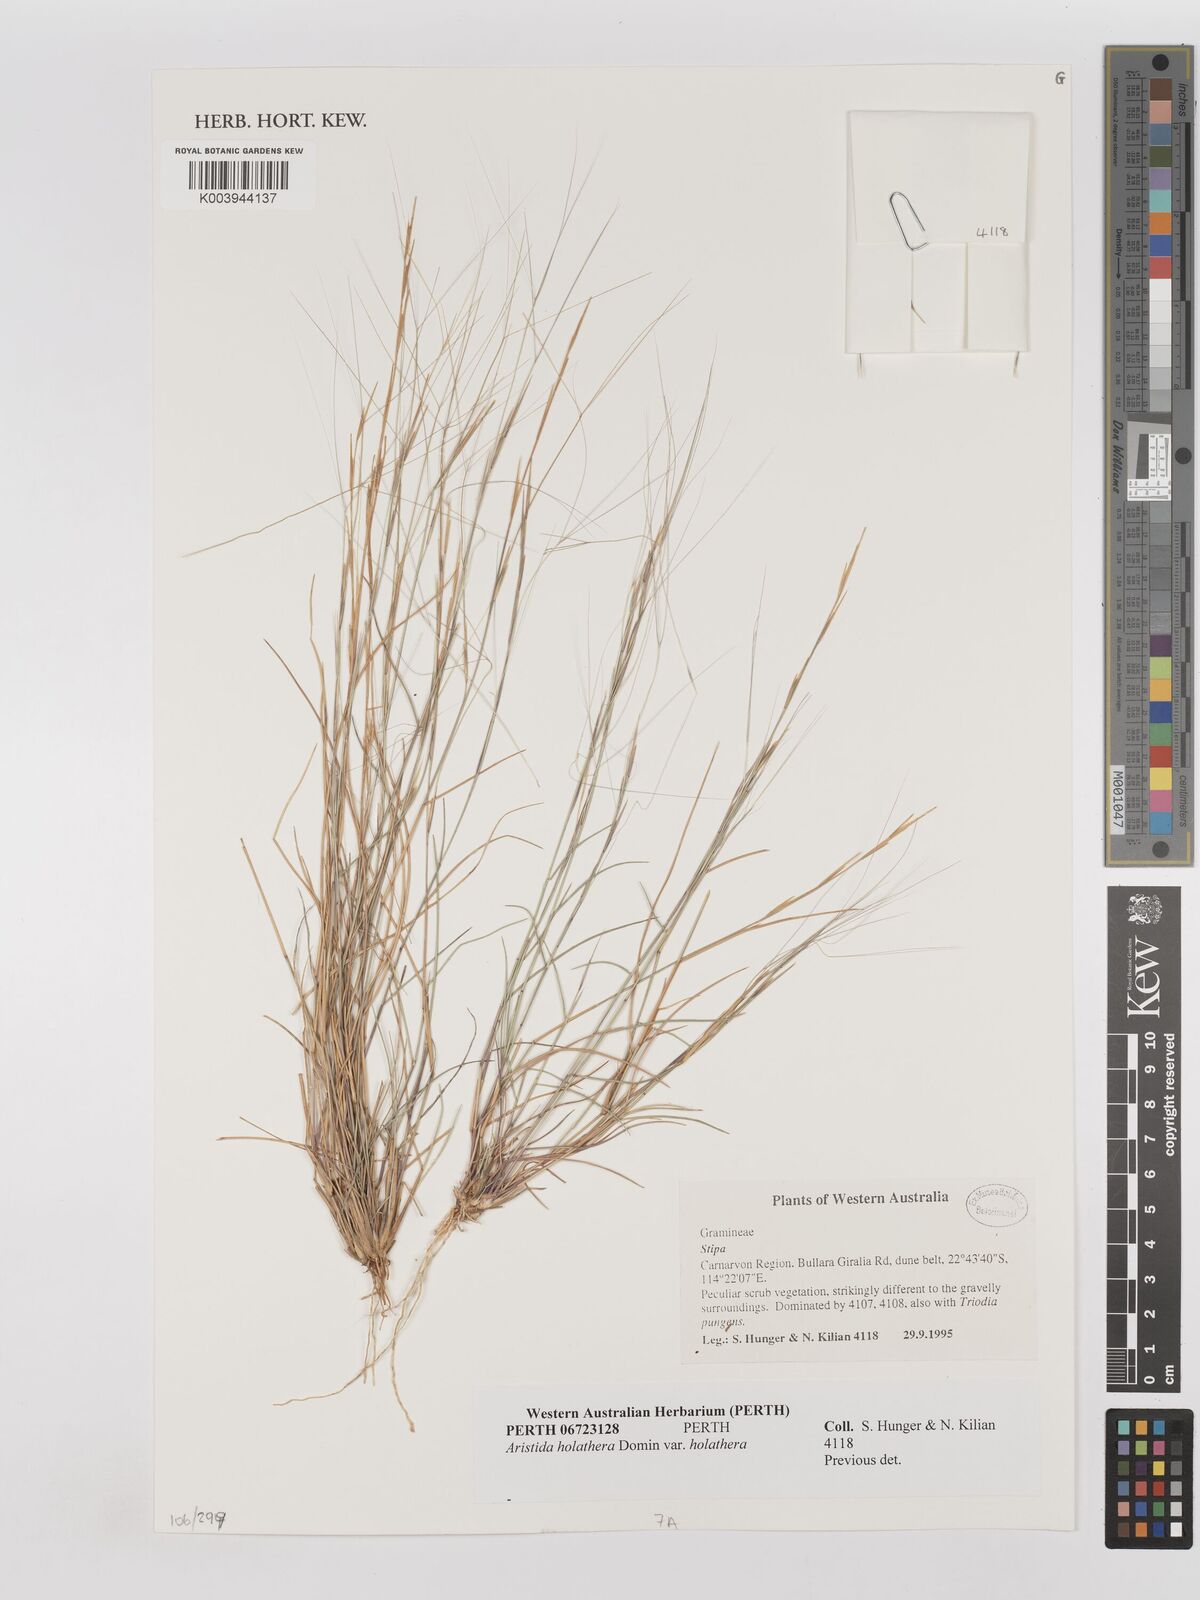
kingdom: Plantae
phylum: Tracheophyta
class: Liliopsida
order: Poales
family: Poaceae
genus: Aristida
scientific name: Aristida holathera
